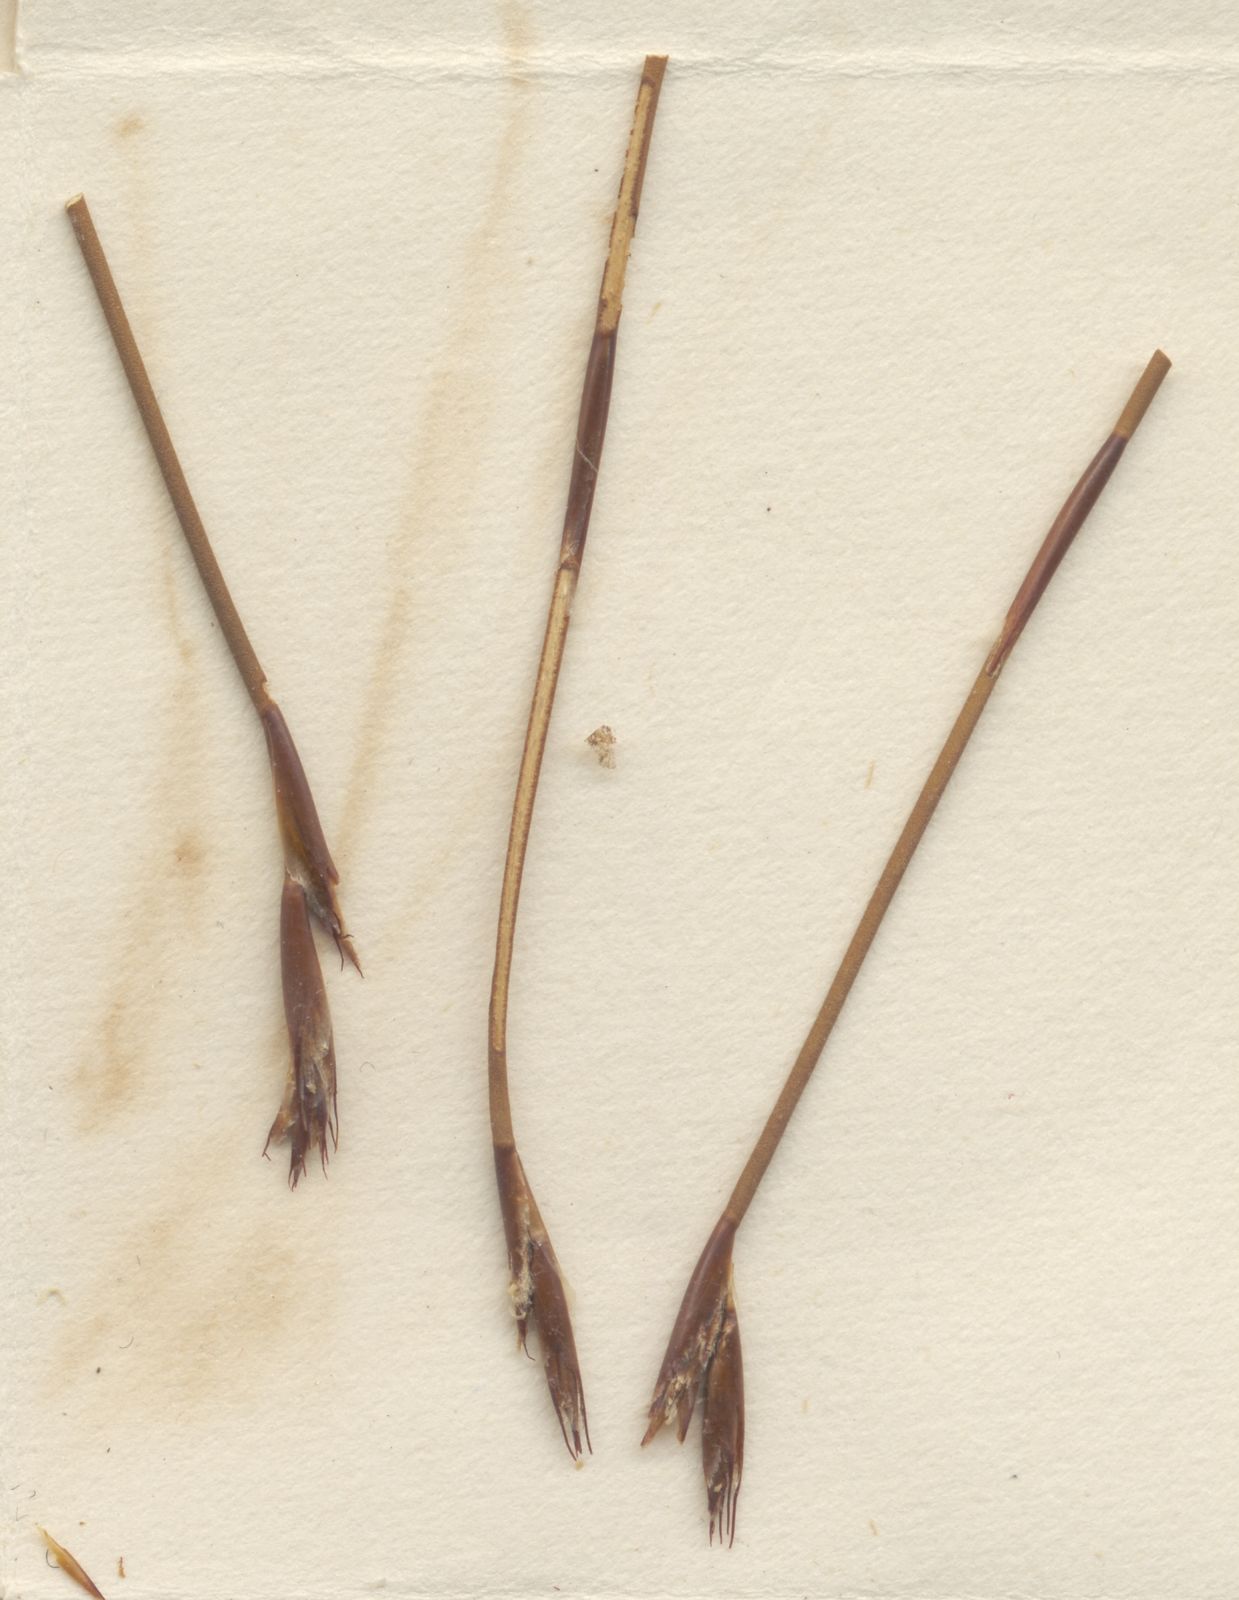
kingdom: Plantae
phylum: Tracheophyta
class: Liliopsida
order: Poales
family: Restionaceae
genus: Restio
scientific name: Restio gossypinus
